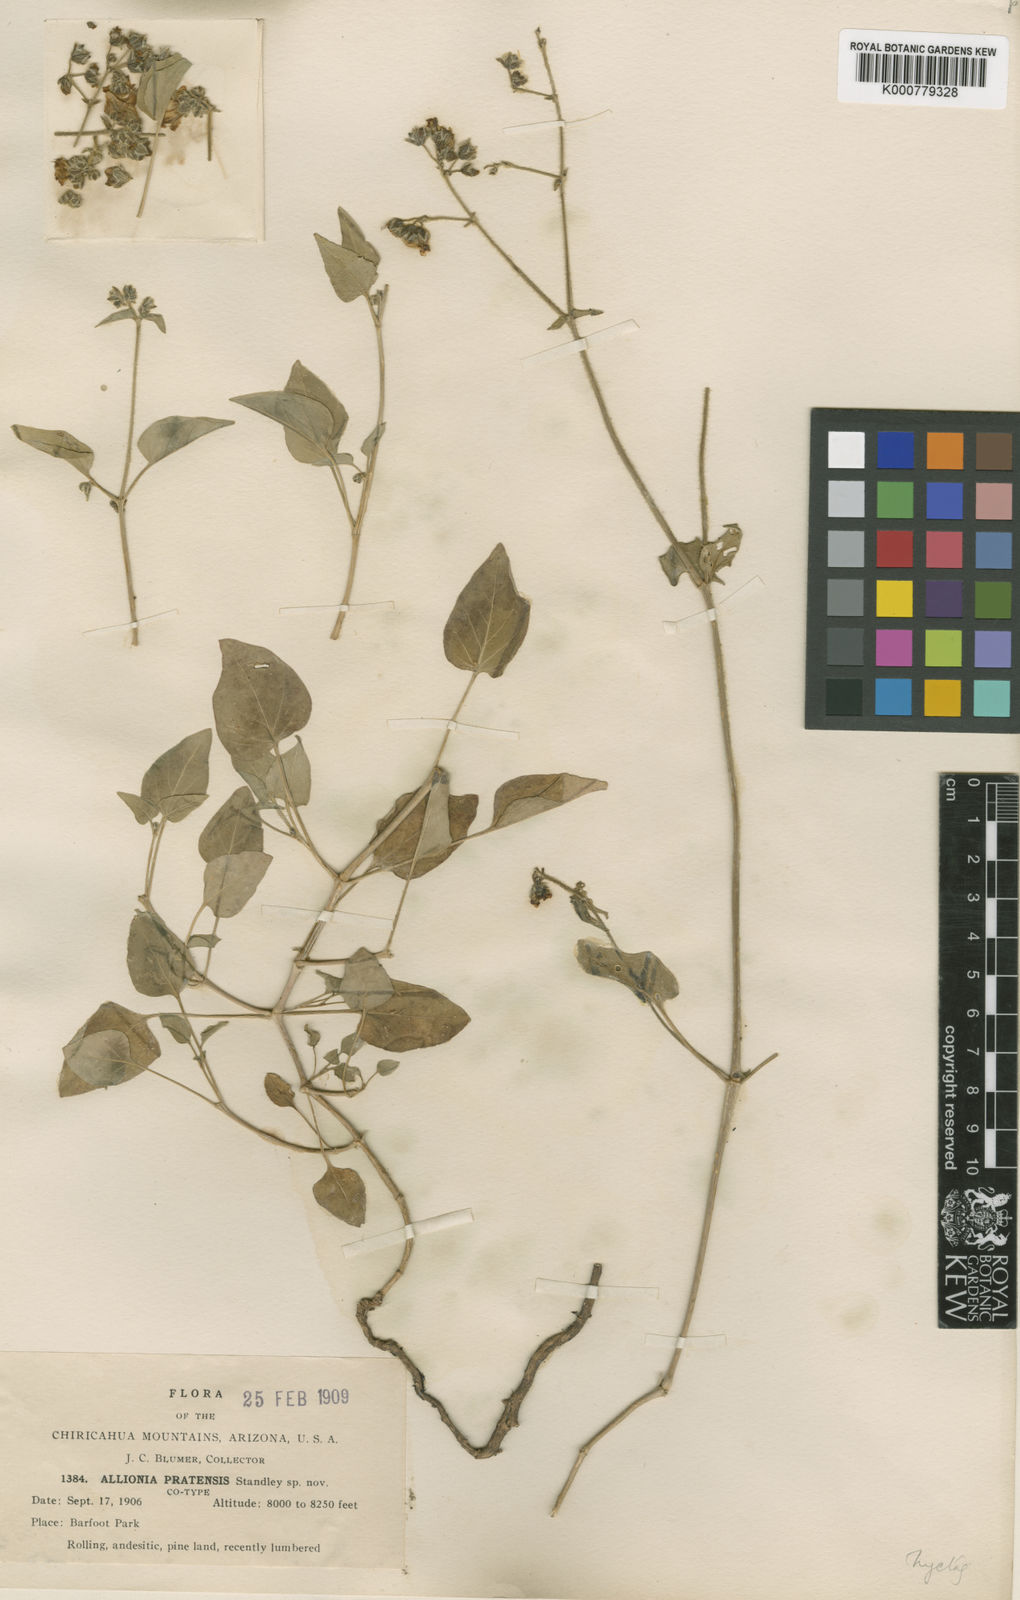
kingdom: Plantae
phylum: Tracheophyta
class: Magnoliopsida
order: Caryophyllales
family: Nyctaginaceae
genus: Mirabilis
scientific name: Mirabilis comata
